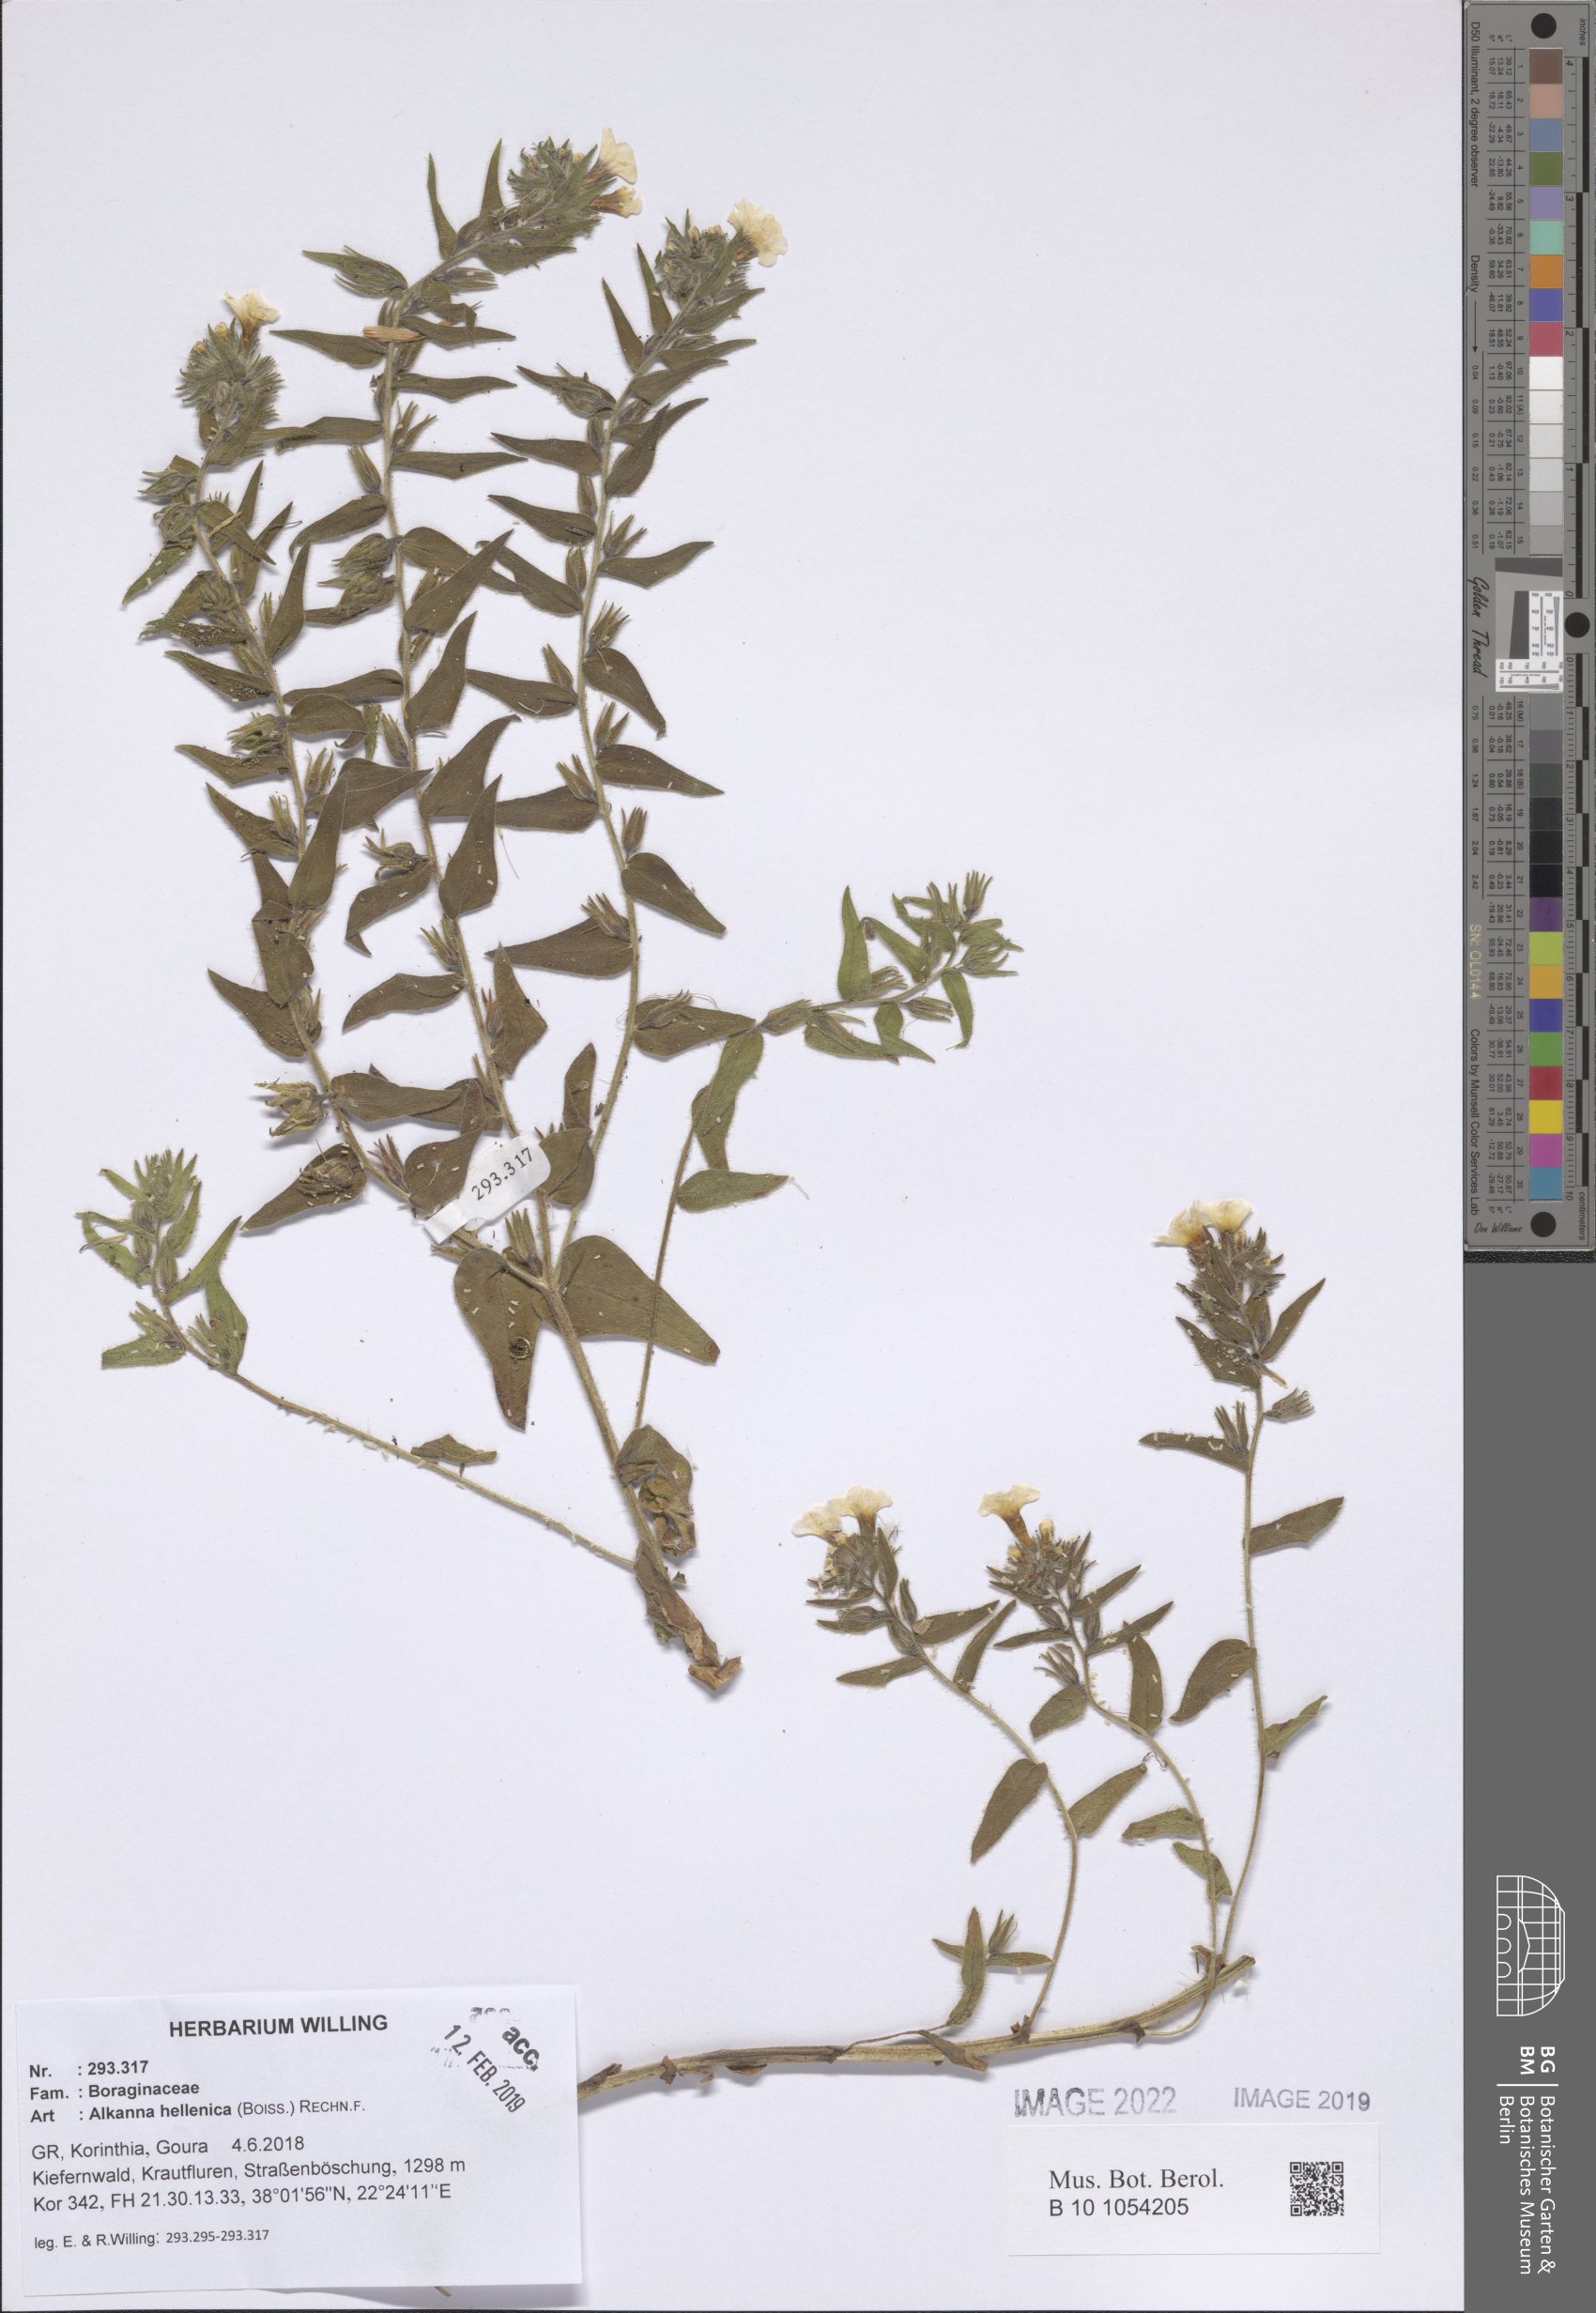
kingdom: Plantae
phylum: Tracheophyta
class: Magnoliopsida
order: Boraginales
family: Boraginaceae
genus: Alkanna
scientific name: Alkanna hellenica
